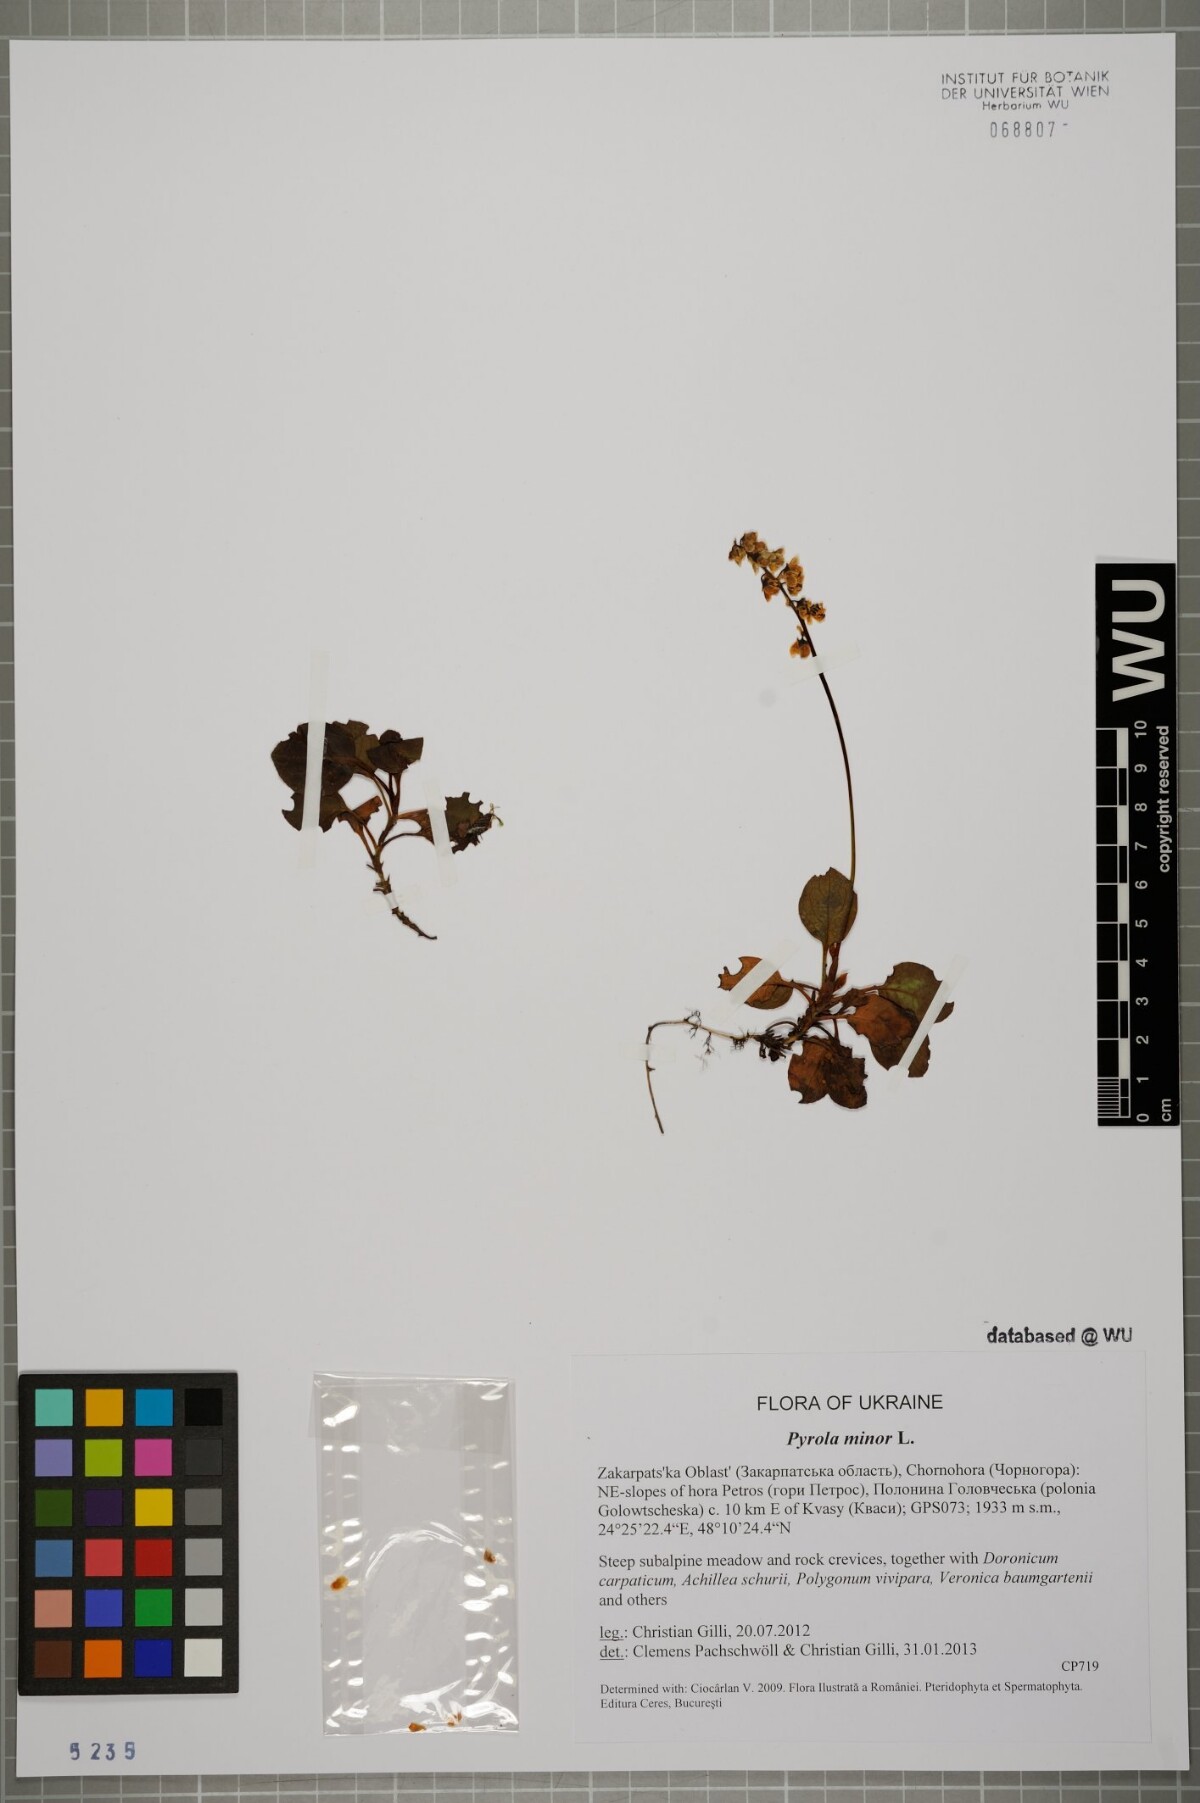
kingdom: Plantae
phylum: Tracheophyta
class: Magnoliopsida
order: Ericales
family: Ericaceae
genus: Pyrola
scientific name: Pyrola minor
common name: Common wintergreen
